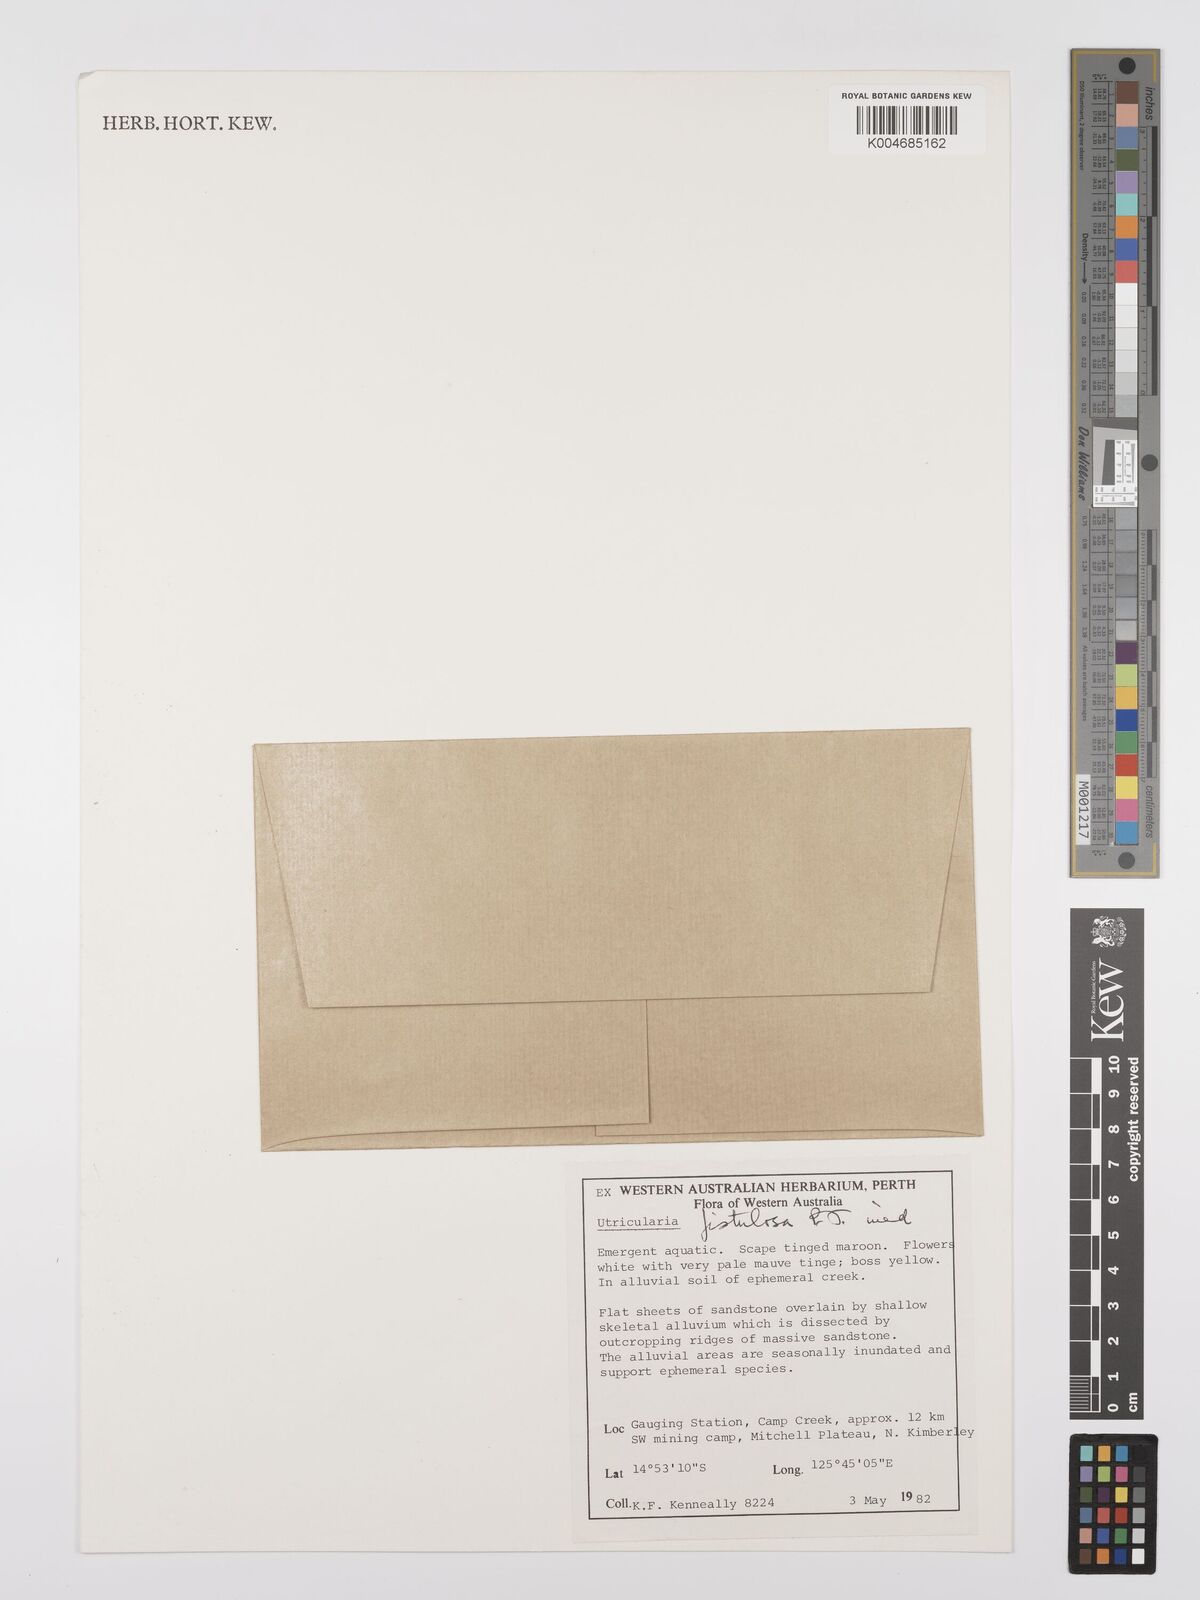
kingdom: Plantae
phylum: Tracheophyta
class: Magnoliopsida
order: Lamiales
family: Lentibulariaceae
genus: Utricularia
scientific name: Utricularia fistulosa
